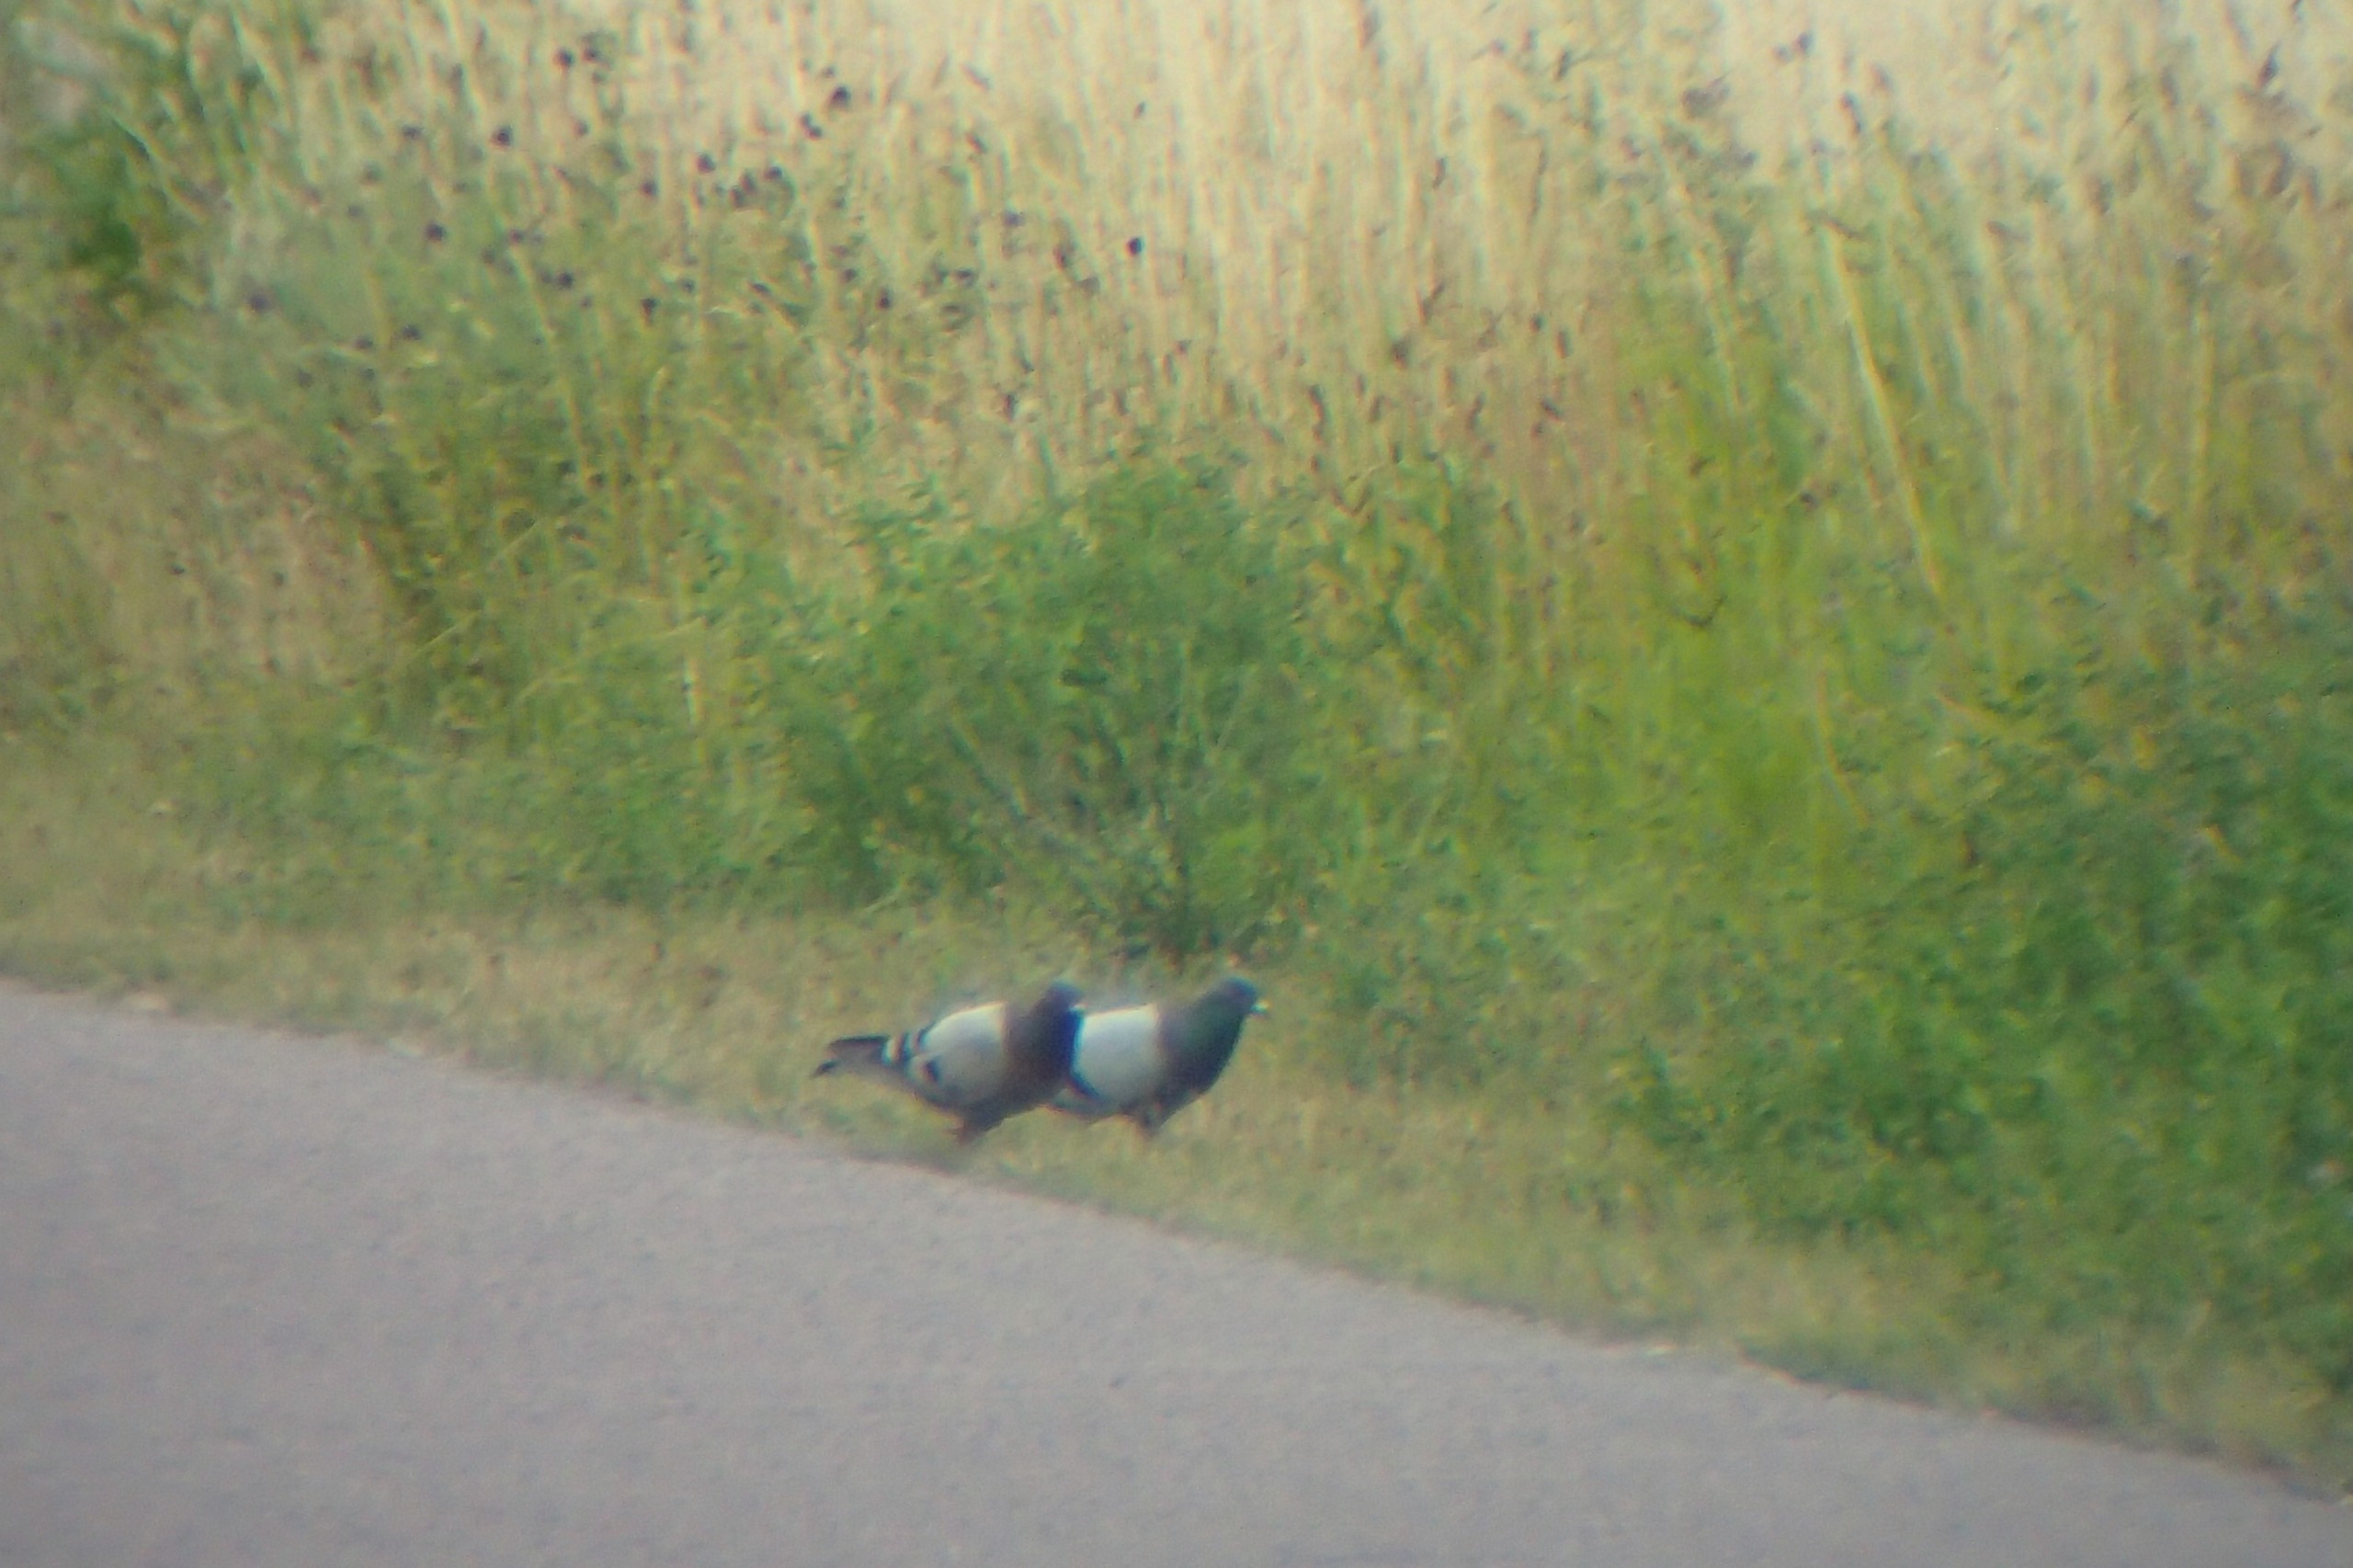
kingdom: Animalia
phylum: Chordata
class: Aves
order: Columbiformes
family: Columbidae
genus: Columba
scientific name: Columba livia
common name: Tamdue
